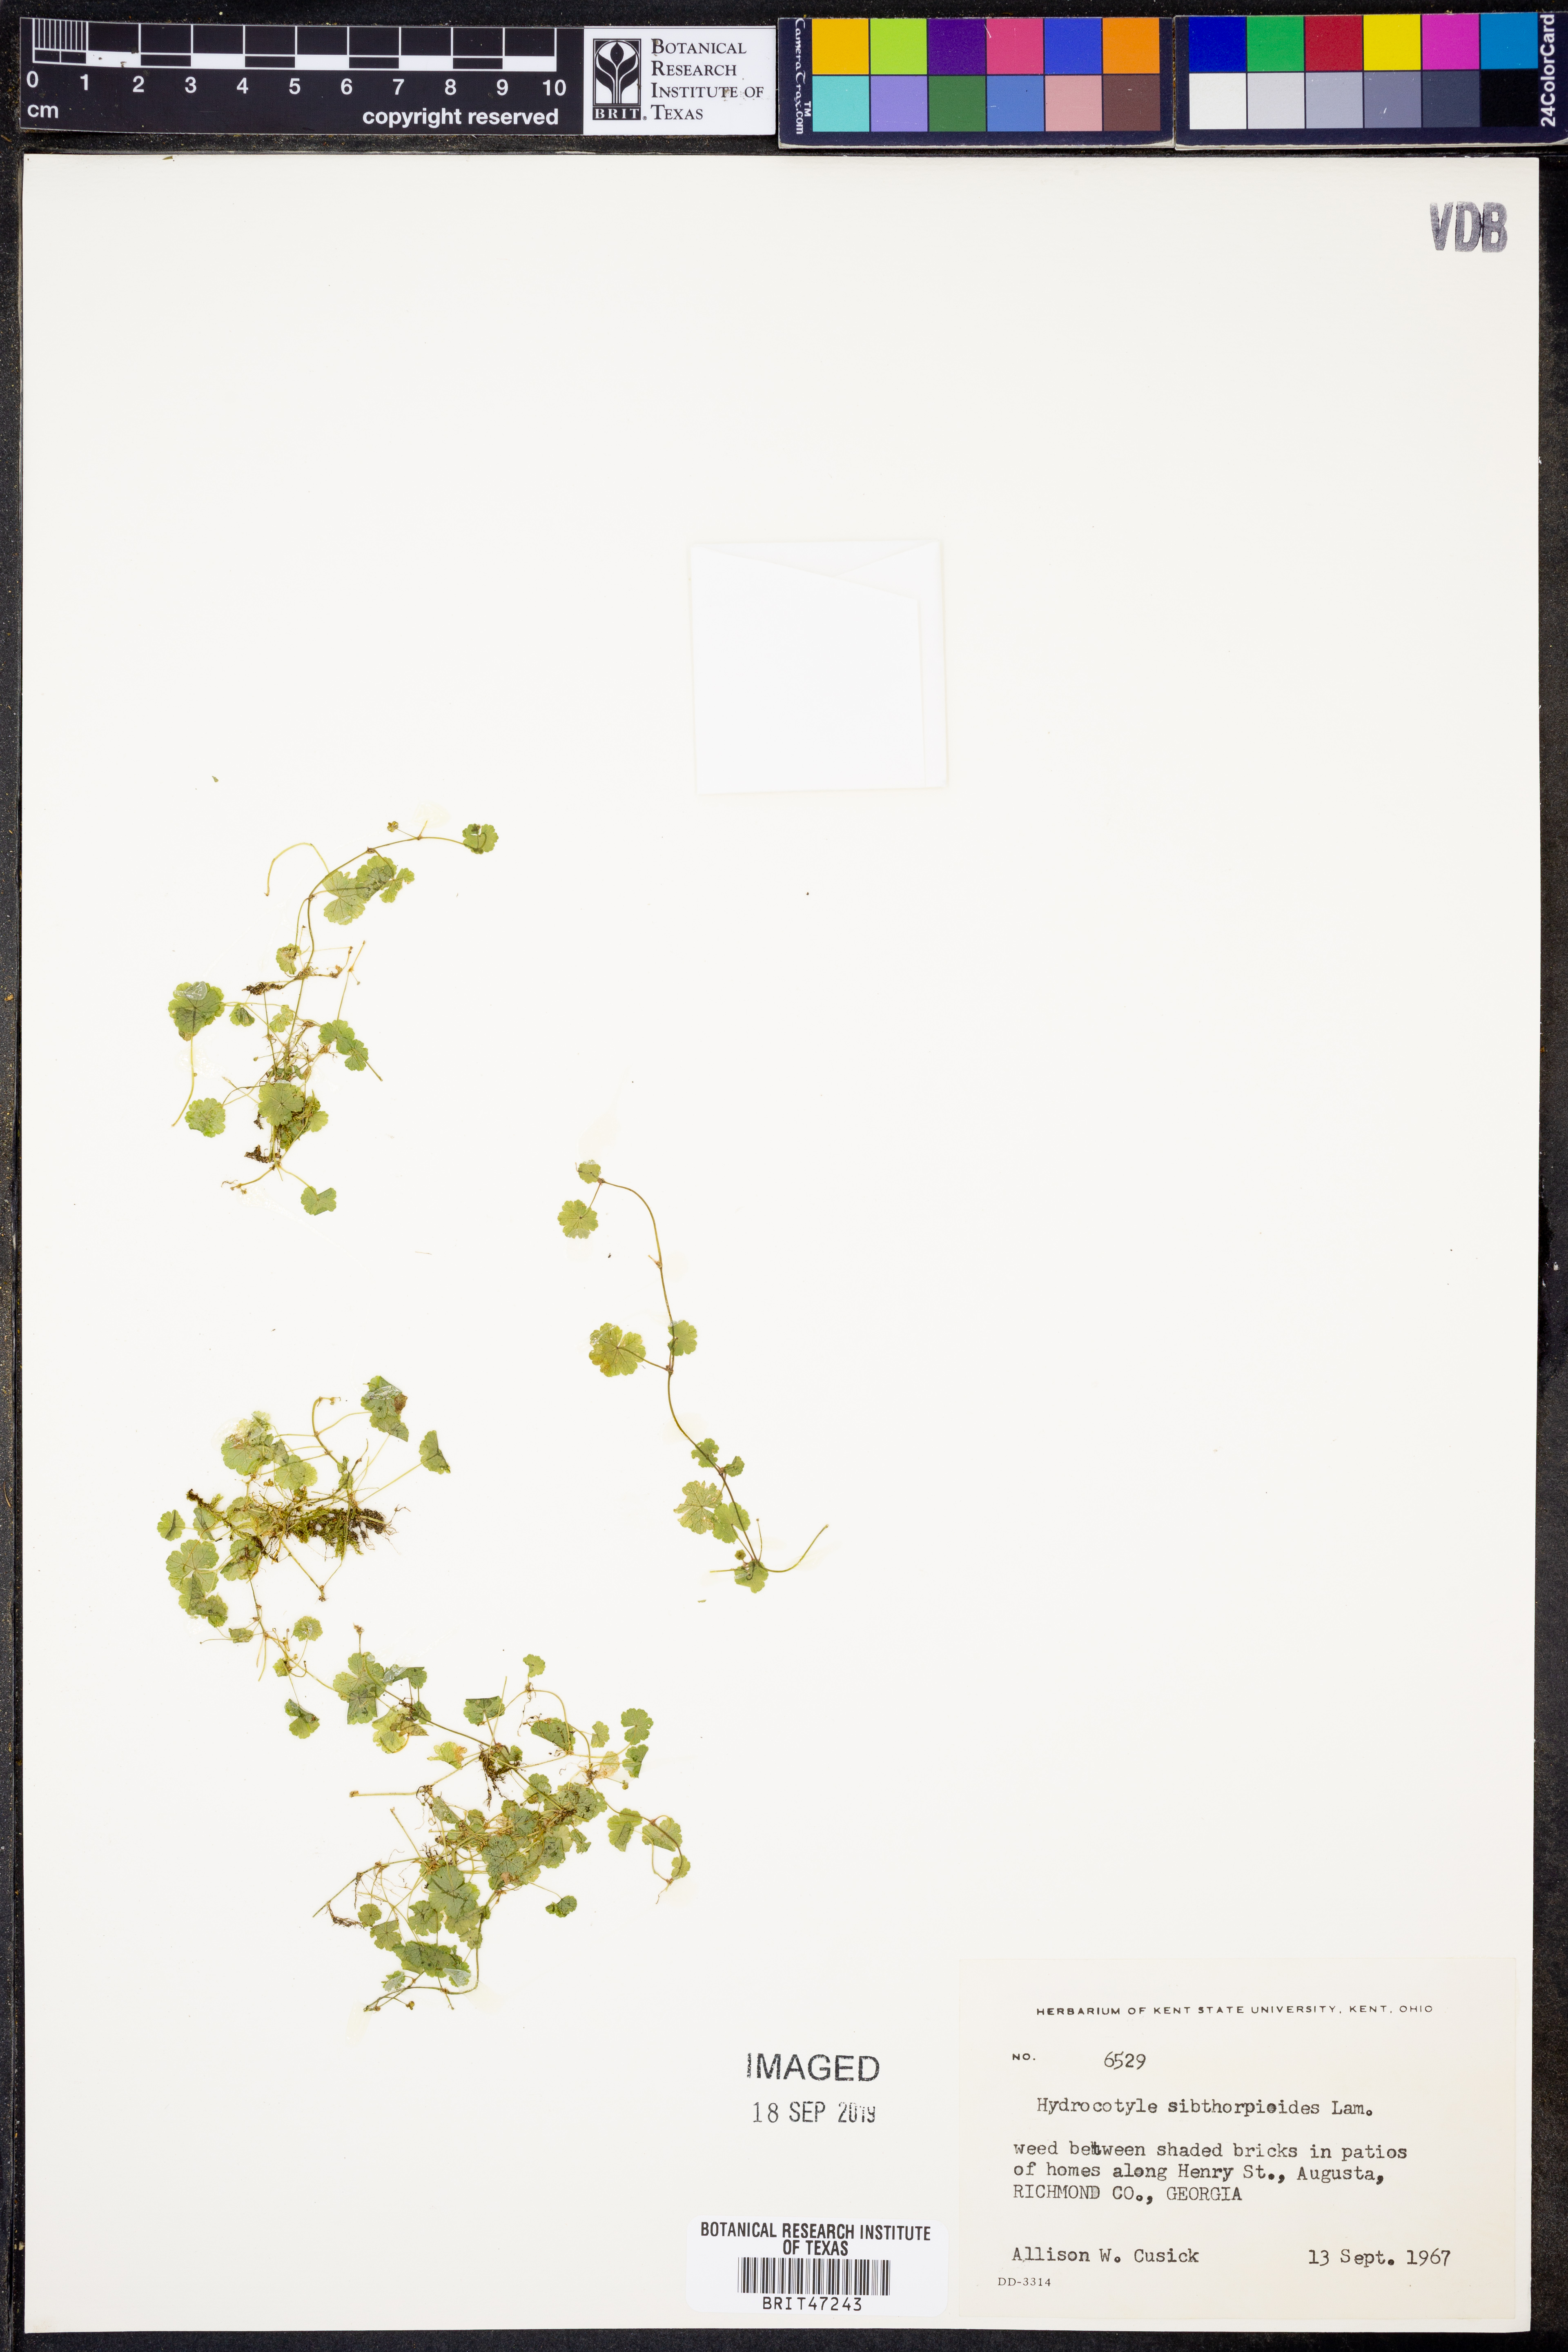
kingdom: Plantae
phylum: Tracheophyta
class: Magnoliopsida
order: Apiales
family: Araliaceae
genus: Hydrocotyle
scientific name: Hydrocotyle sibthorpioides
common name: Lawn marshpennywort
